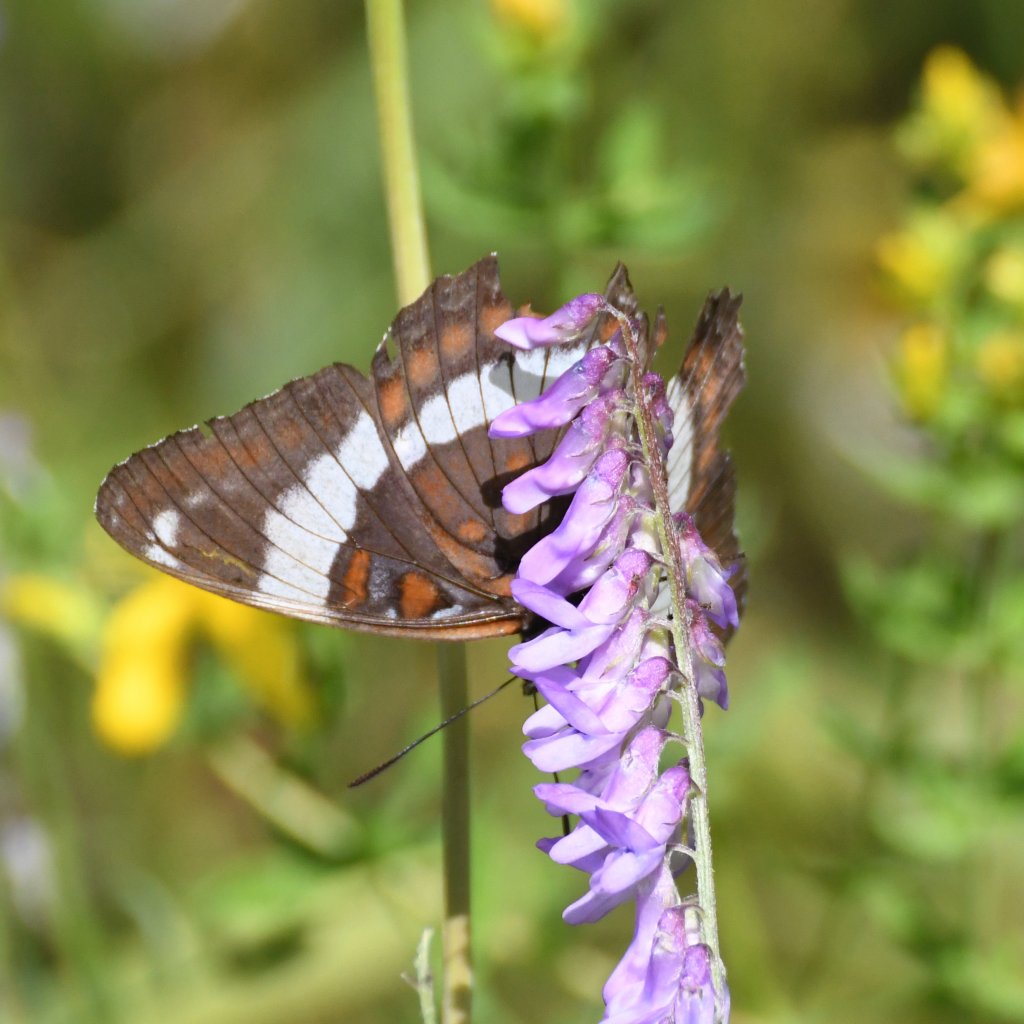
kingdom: Animalia
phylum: Arthropoda
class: Insecta
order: Lepidoptera
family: Nymphalidae
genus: Limenitis
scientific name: Limenitis arthemis
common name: Red-spotted Admiral
